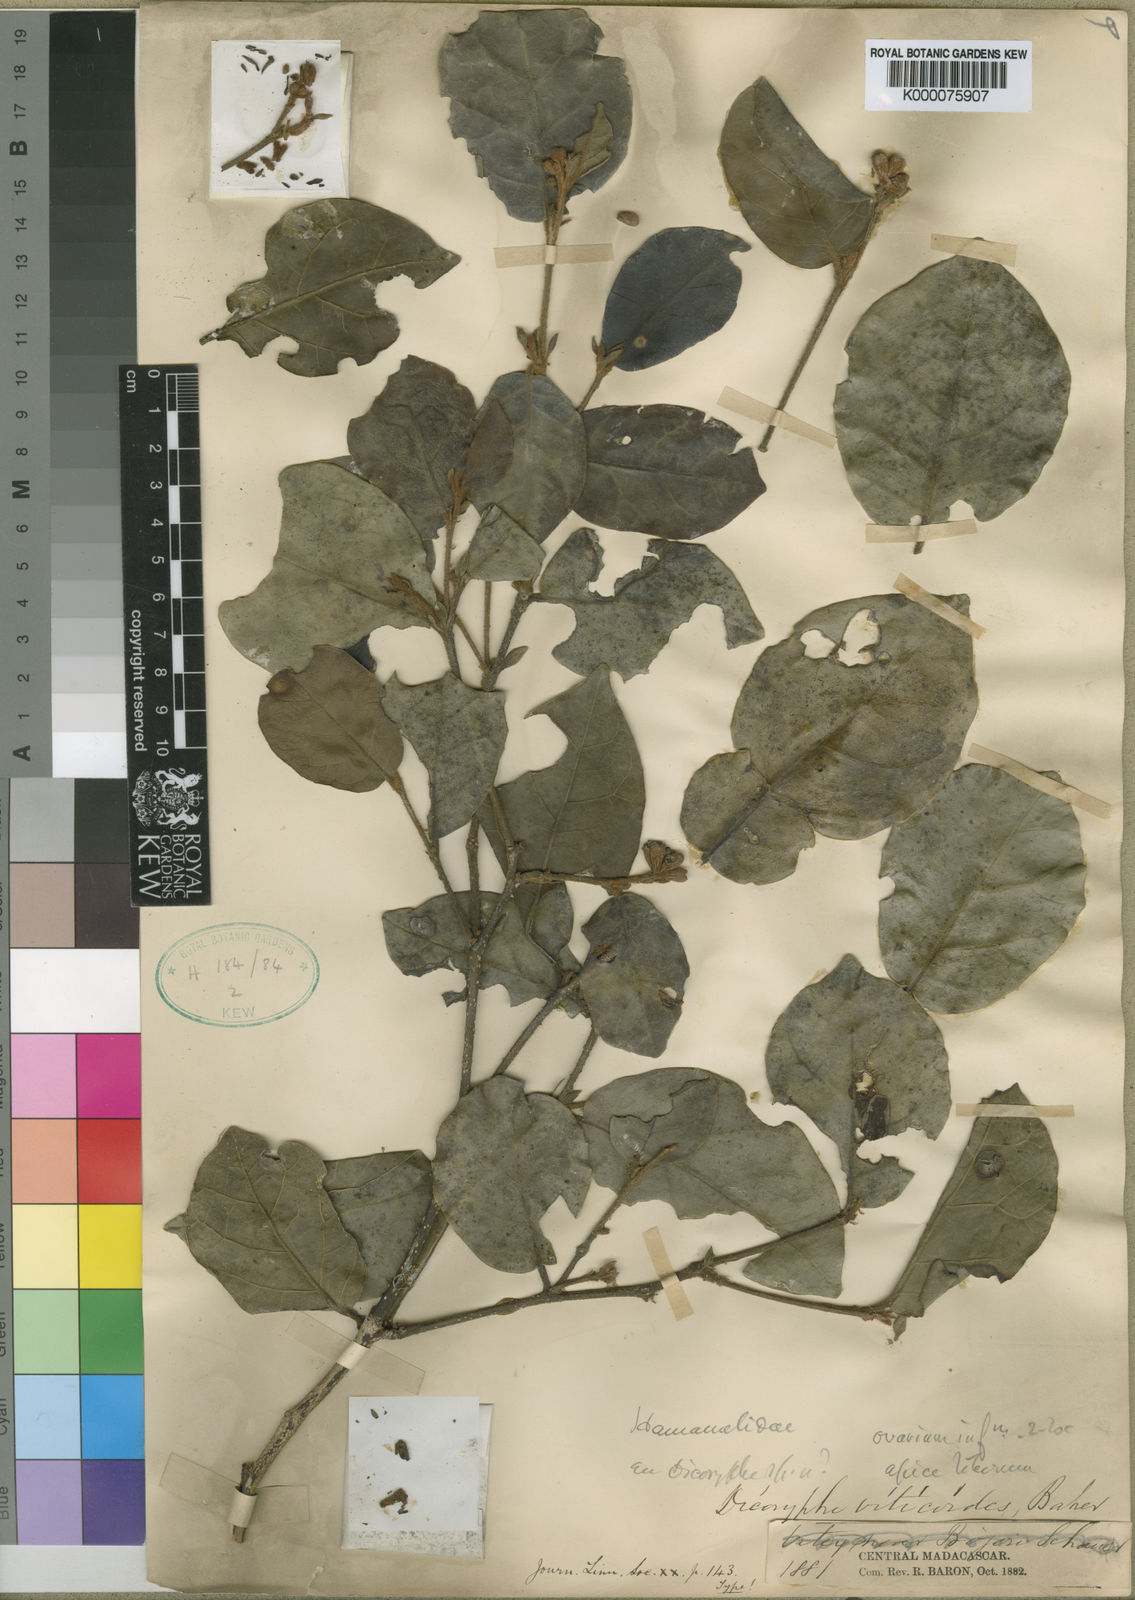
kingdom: Plantae
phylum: Tracheophyta
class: Magnoliopsida
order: Saxifragales
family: Hamamelidaceae
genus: Dicoryphe
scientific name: Dicoryphe buddleoides
